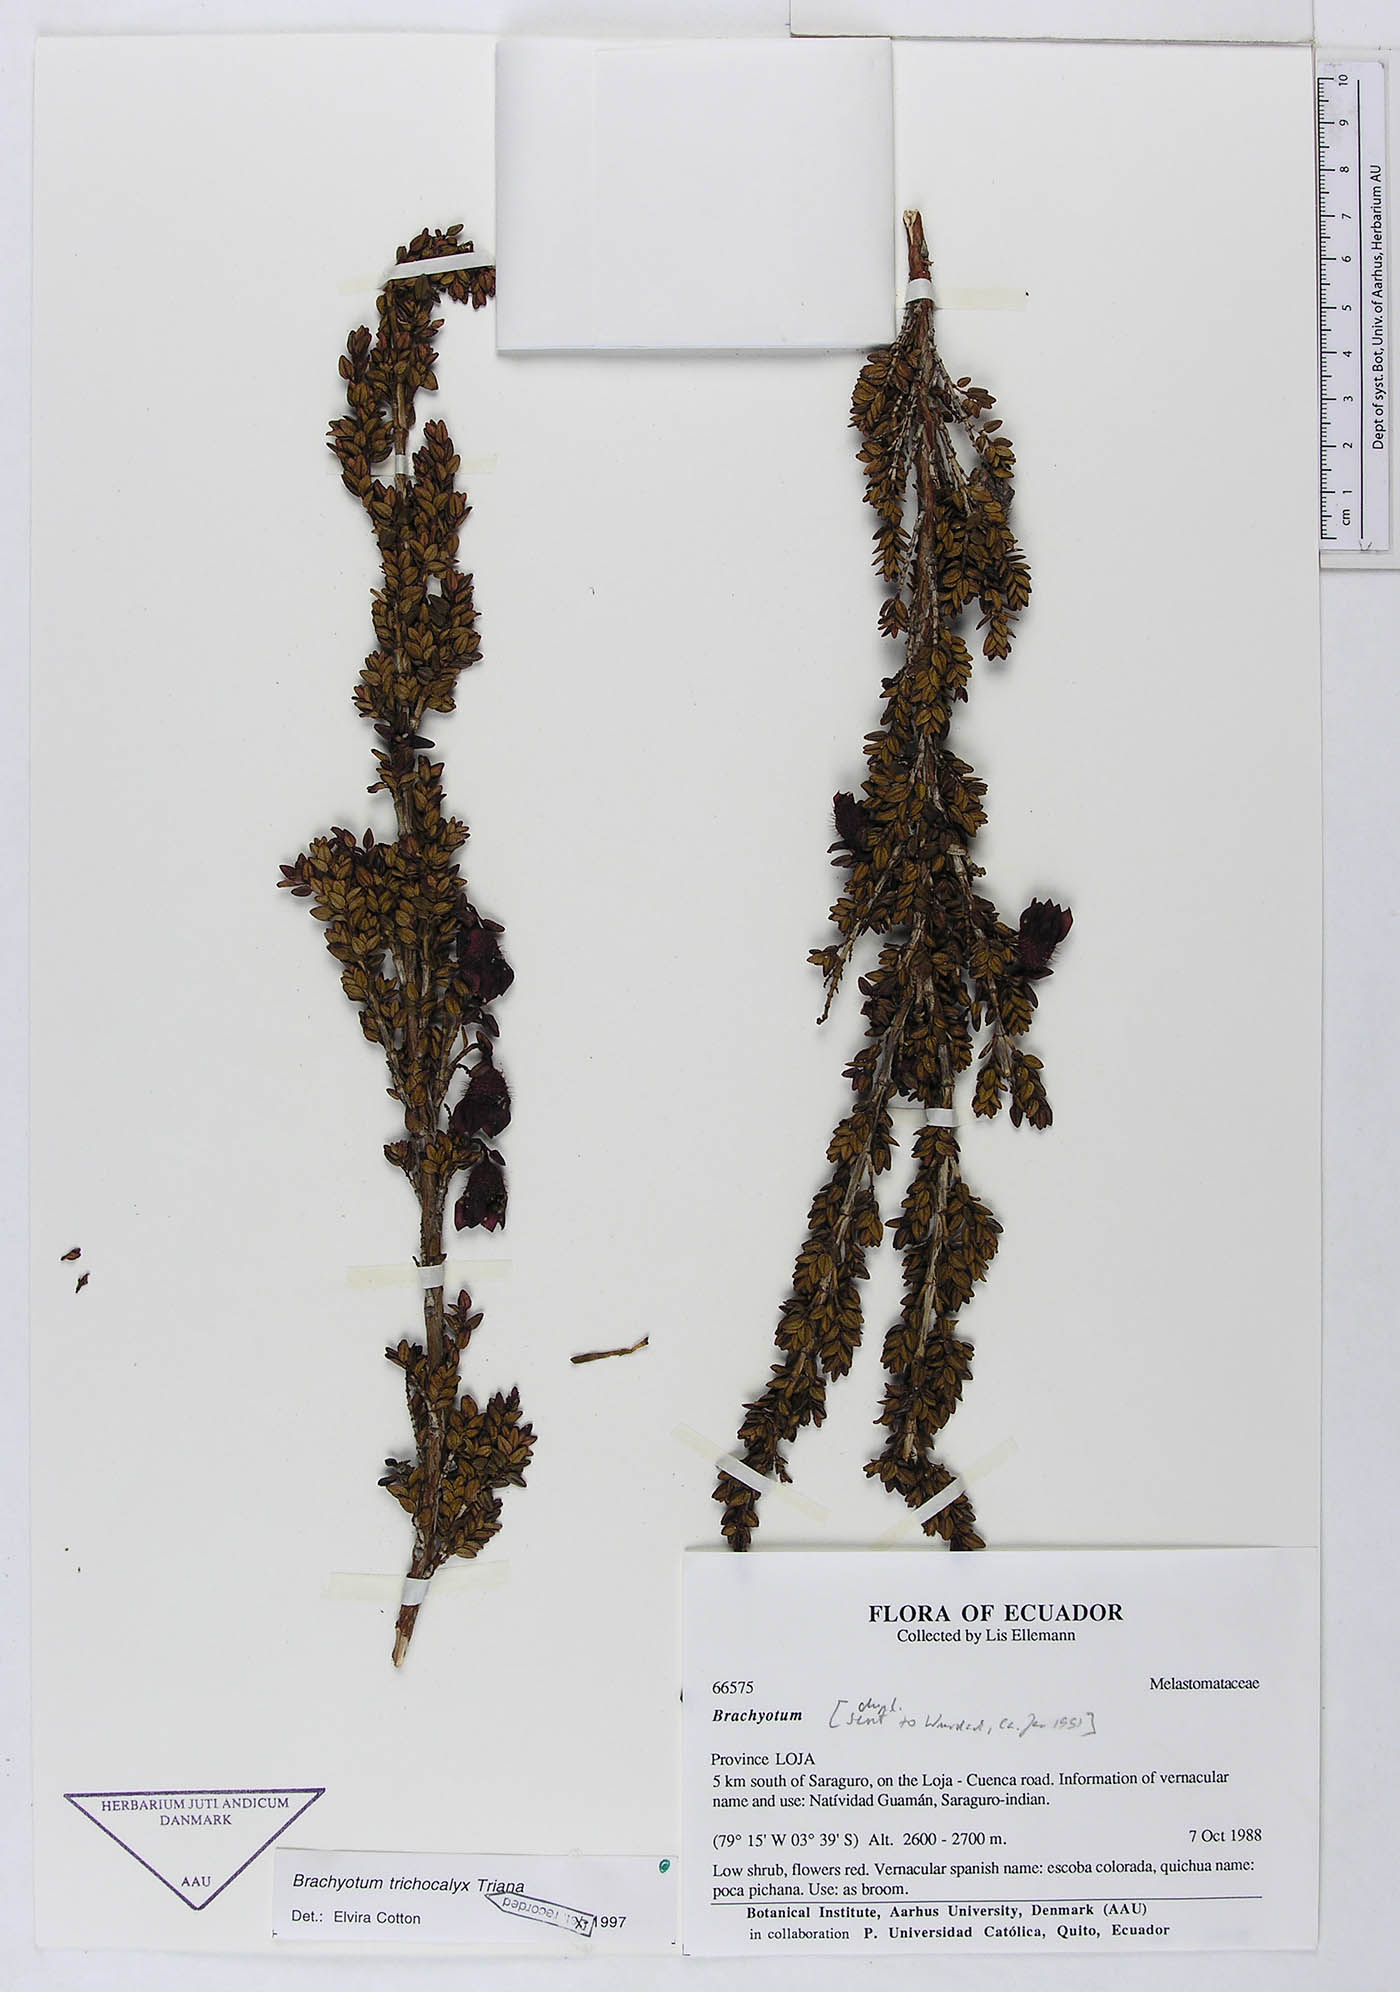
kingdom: Plantae
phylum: Tracheophyta
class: Magnoliopsida
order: Myrtales
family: Melastomataceae
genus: Brachyotum
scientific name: Brachyotum trichocalyx
